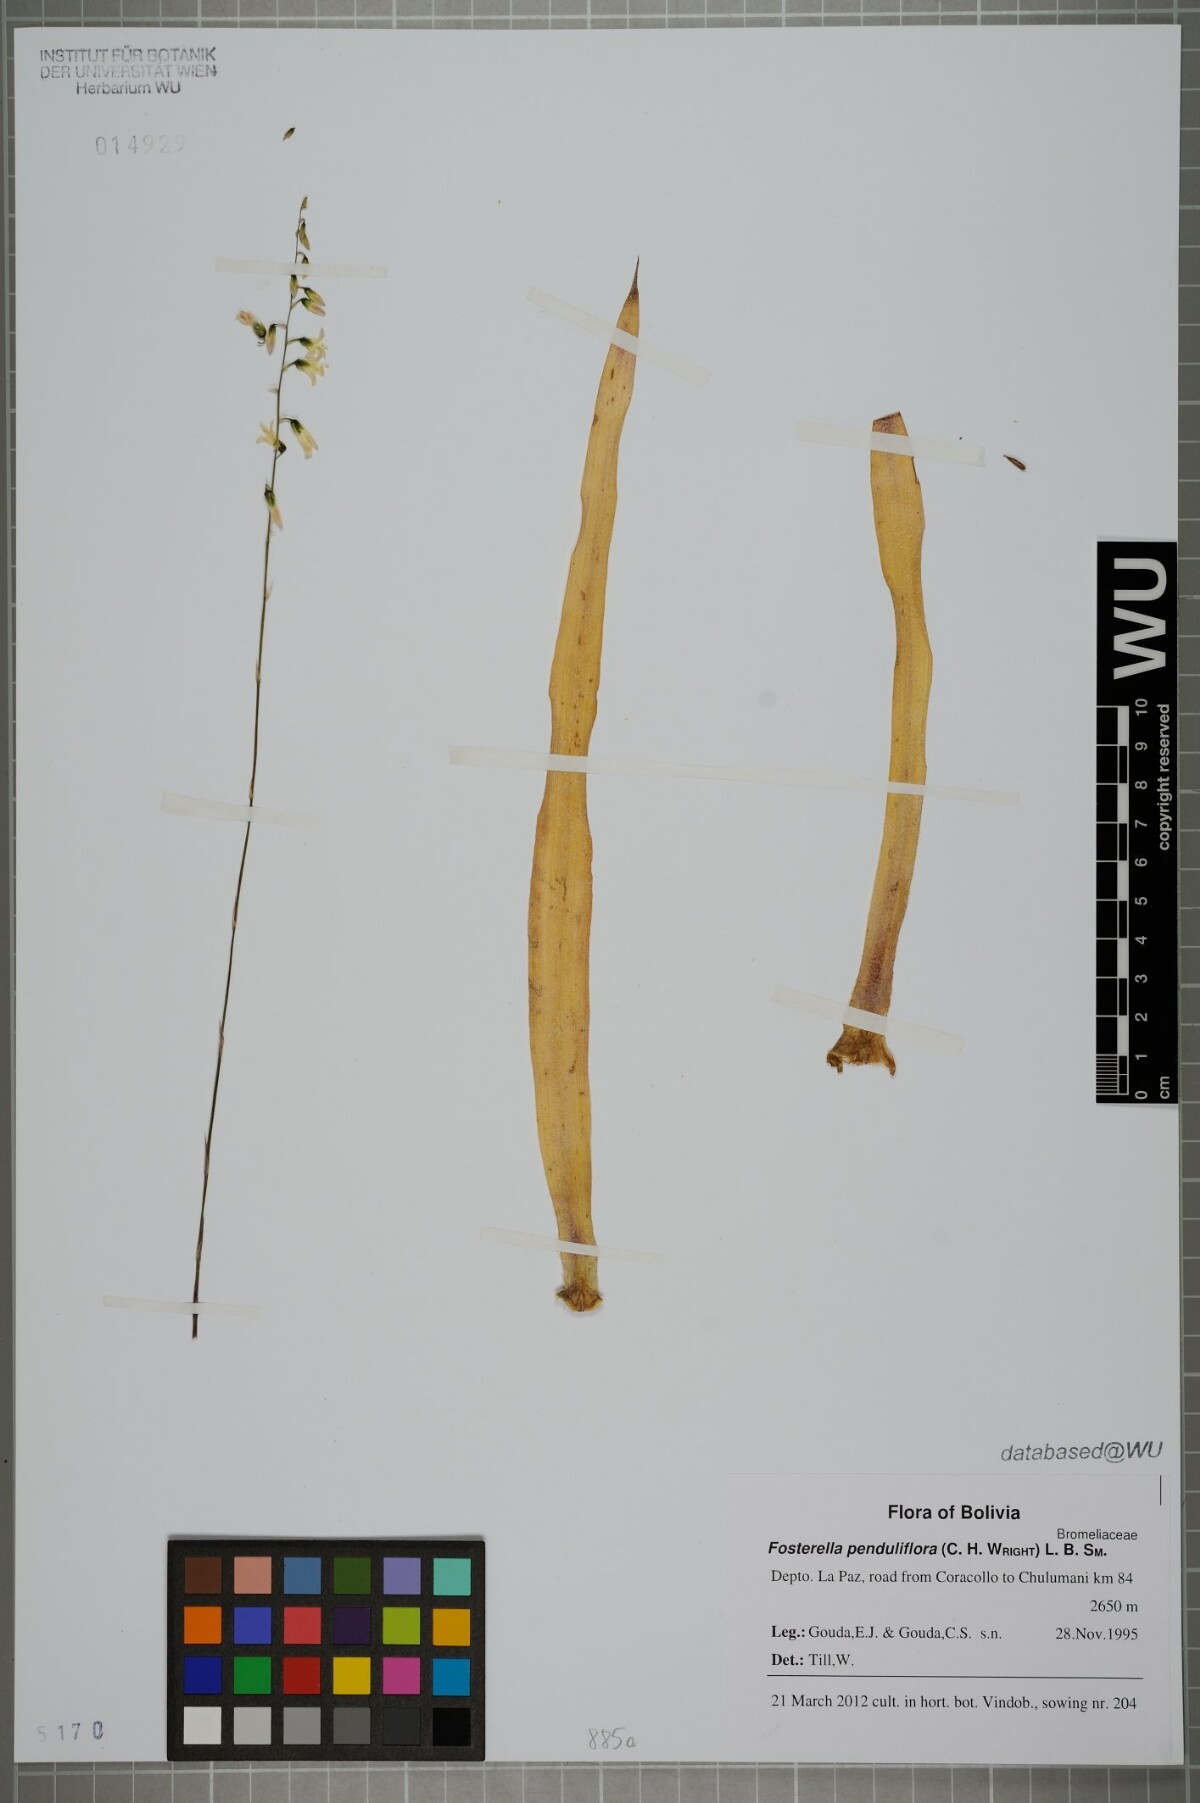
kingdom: Plantae
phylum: Tracheophyta
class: Liliopsida
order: Poales
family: Bromeliaceae
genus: Fosterella
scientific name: Fosterella penduliflora
